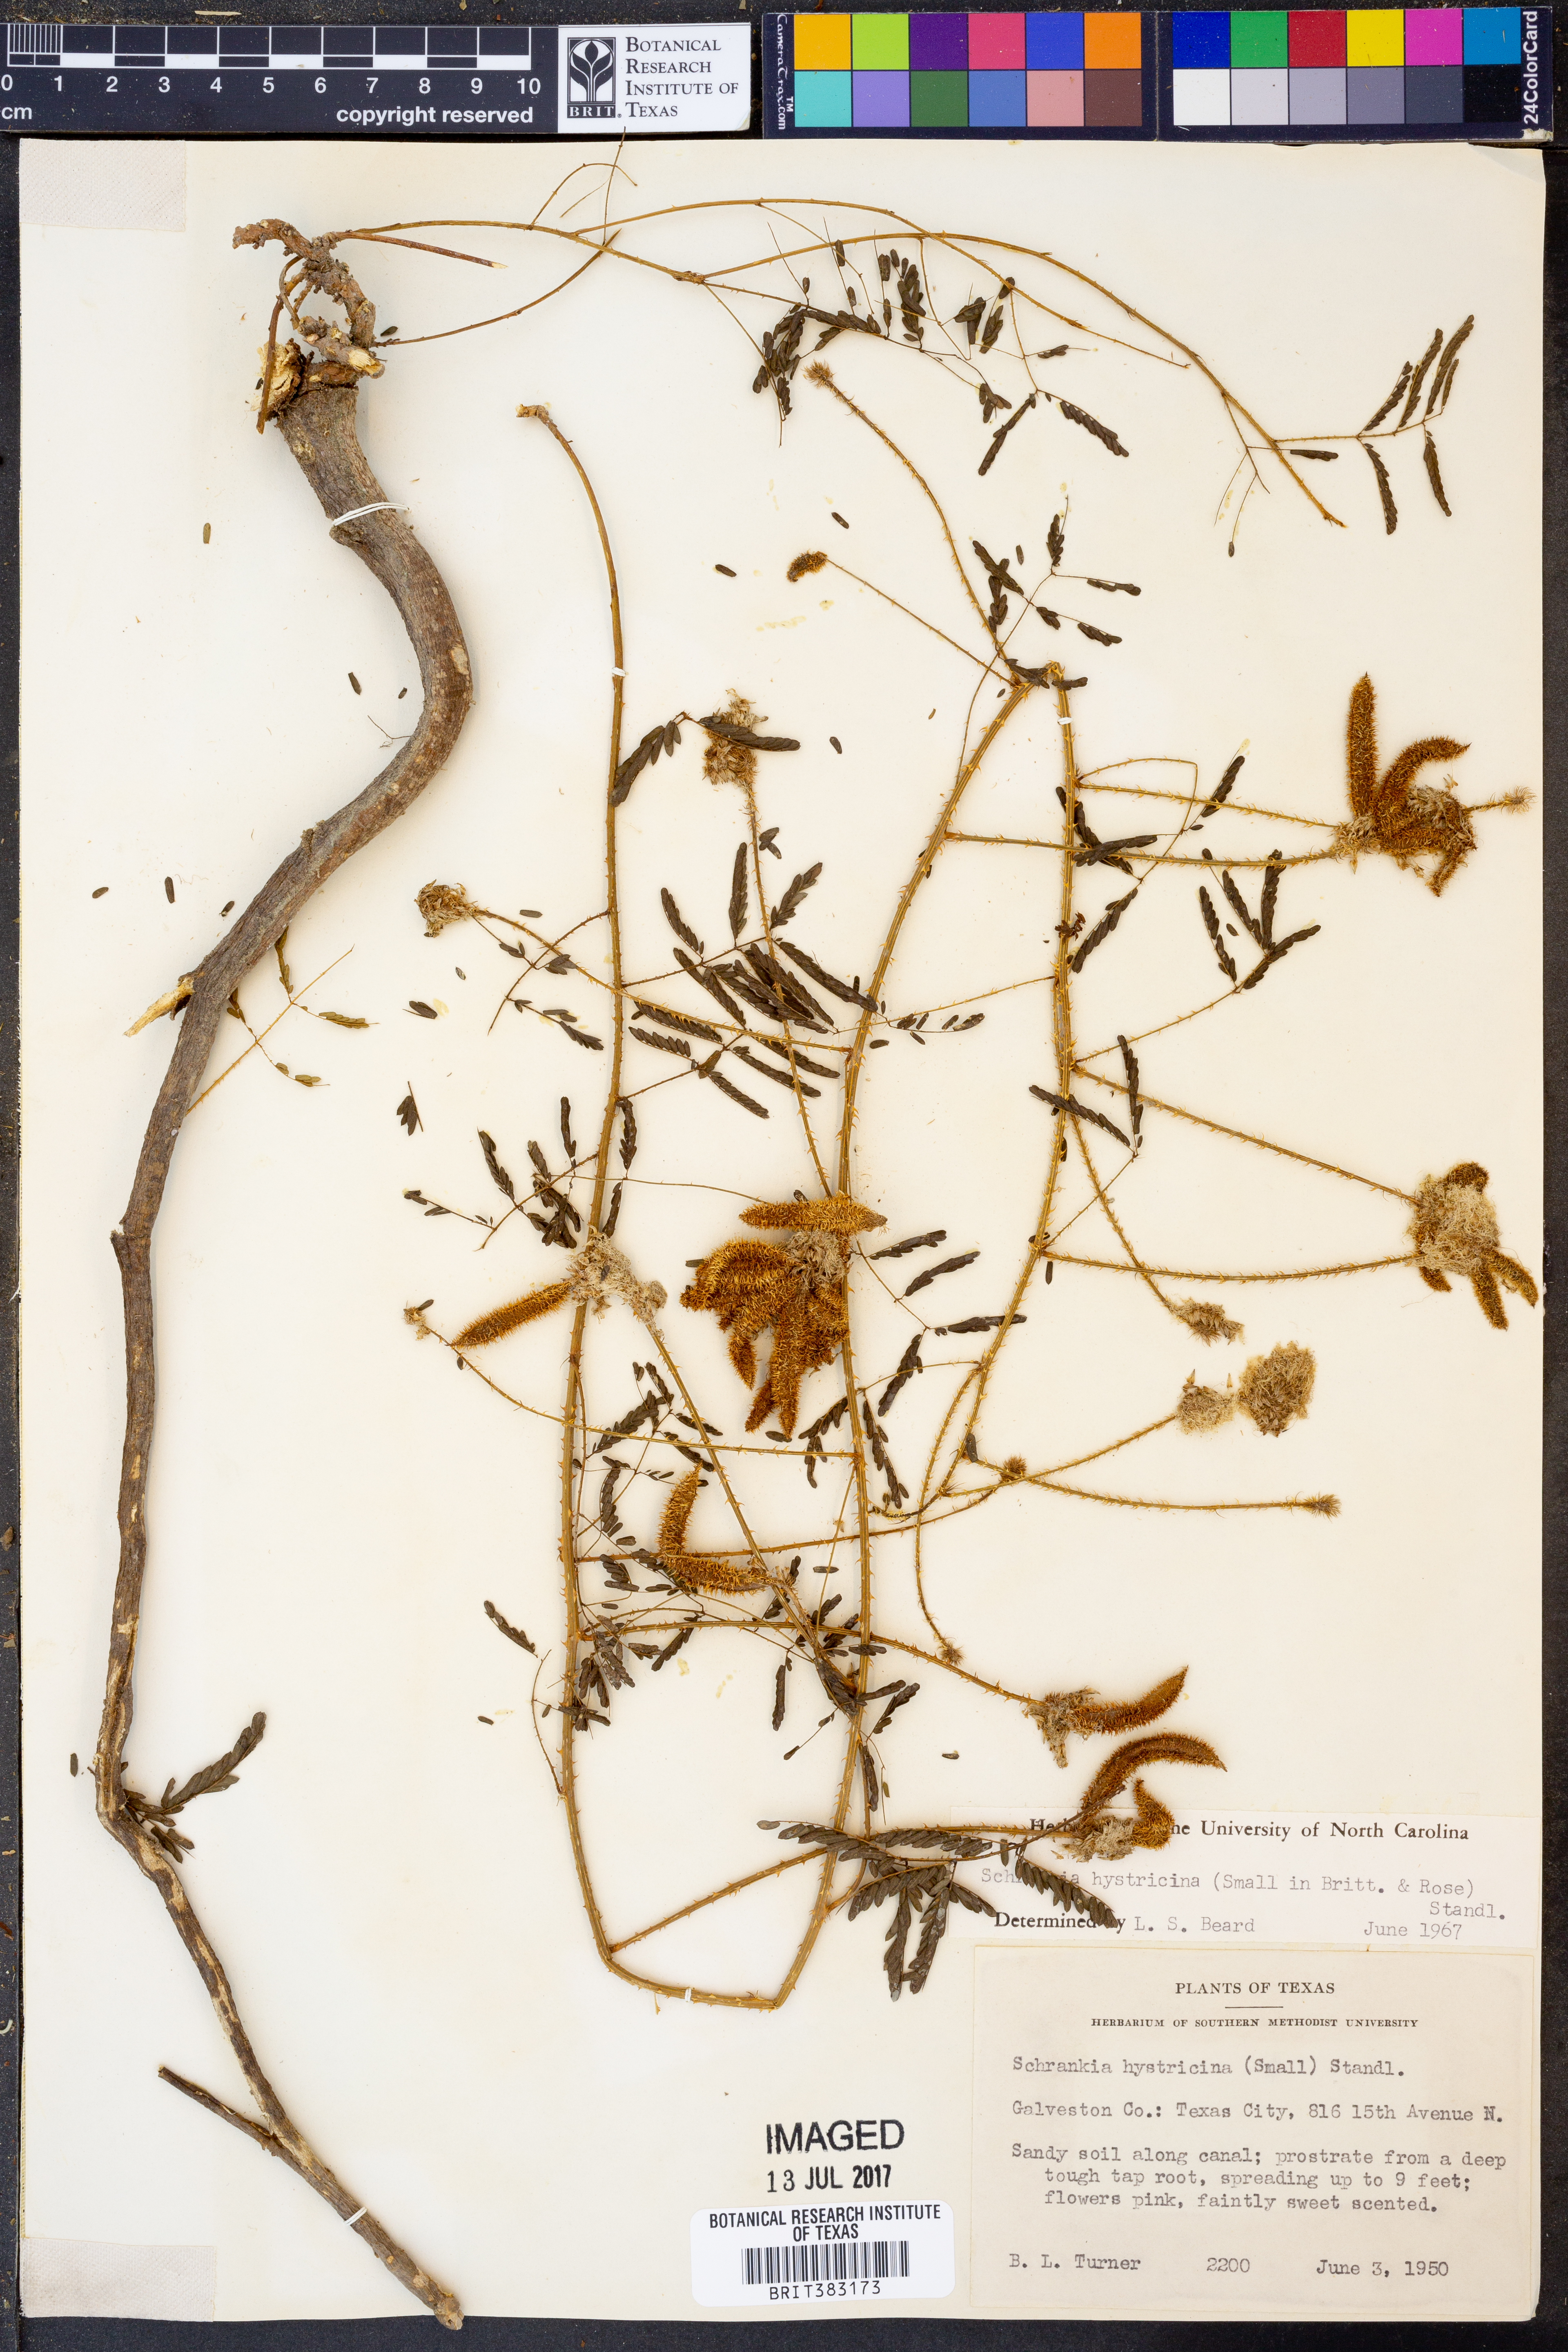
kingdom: Plantae
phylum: Tracheophyta
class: Magnoliopsida
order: Fabales
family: Fabaceae
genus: Mimosa
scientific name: Mimosa hystricina
